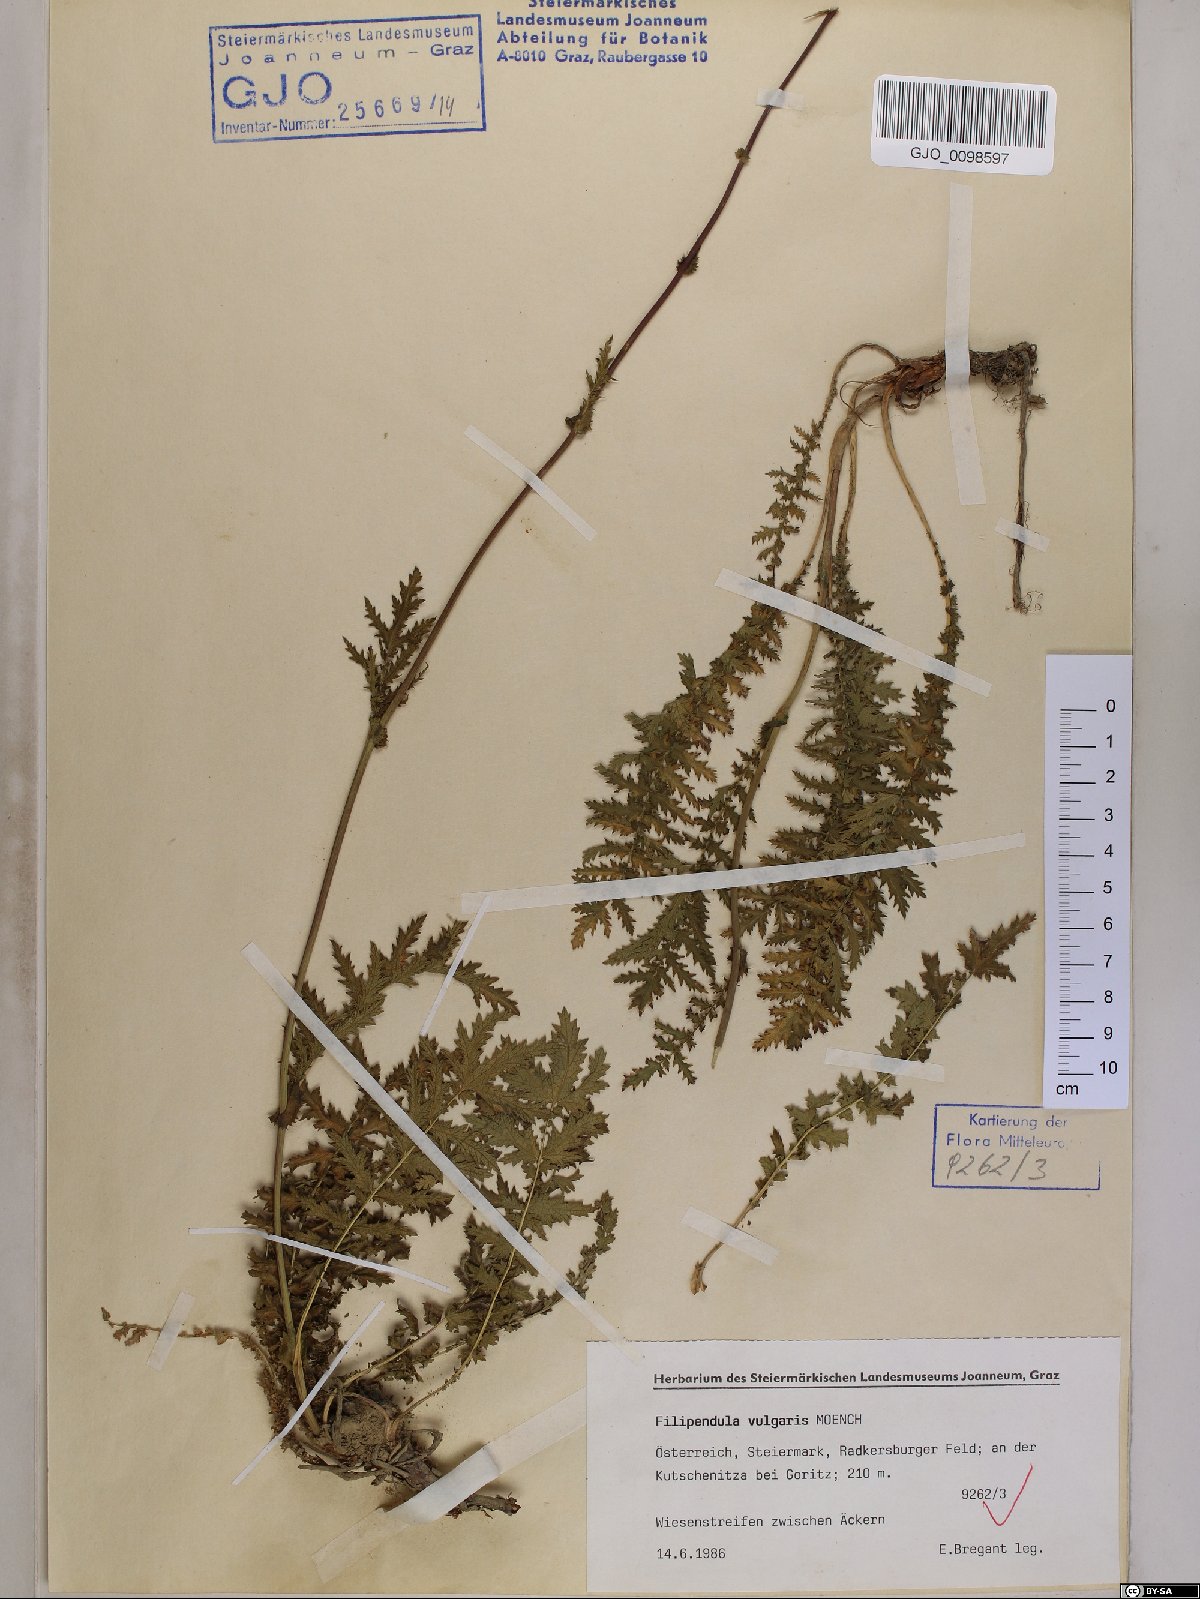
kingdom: Plantae
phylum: Tracheophyta
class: Magnoliopsida
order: Rosales
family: Rosaceae
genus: Filipendula
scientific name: Filipendula vulgaris
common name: Dropwort
